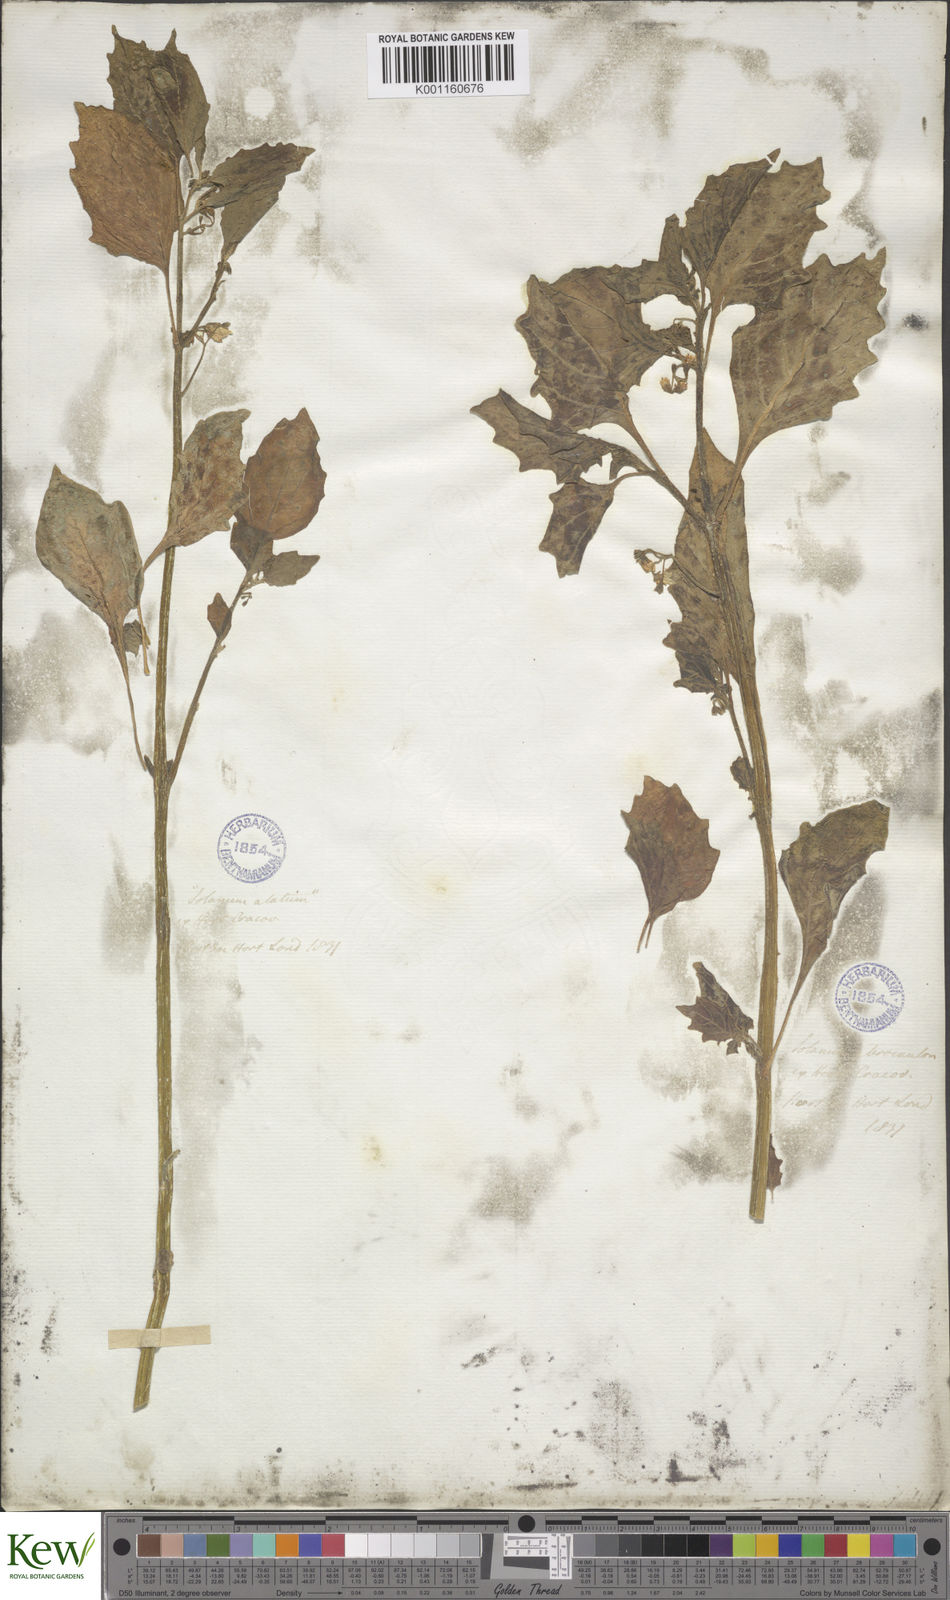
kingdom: Plantae
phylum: Tracheophyta
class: Magnoliopsida
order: Solanales
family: Solanaceae
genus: Solanum
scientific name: Solanum
